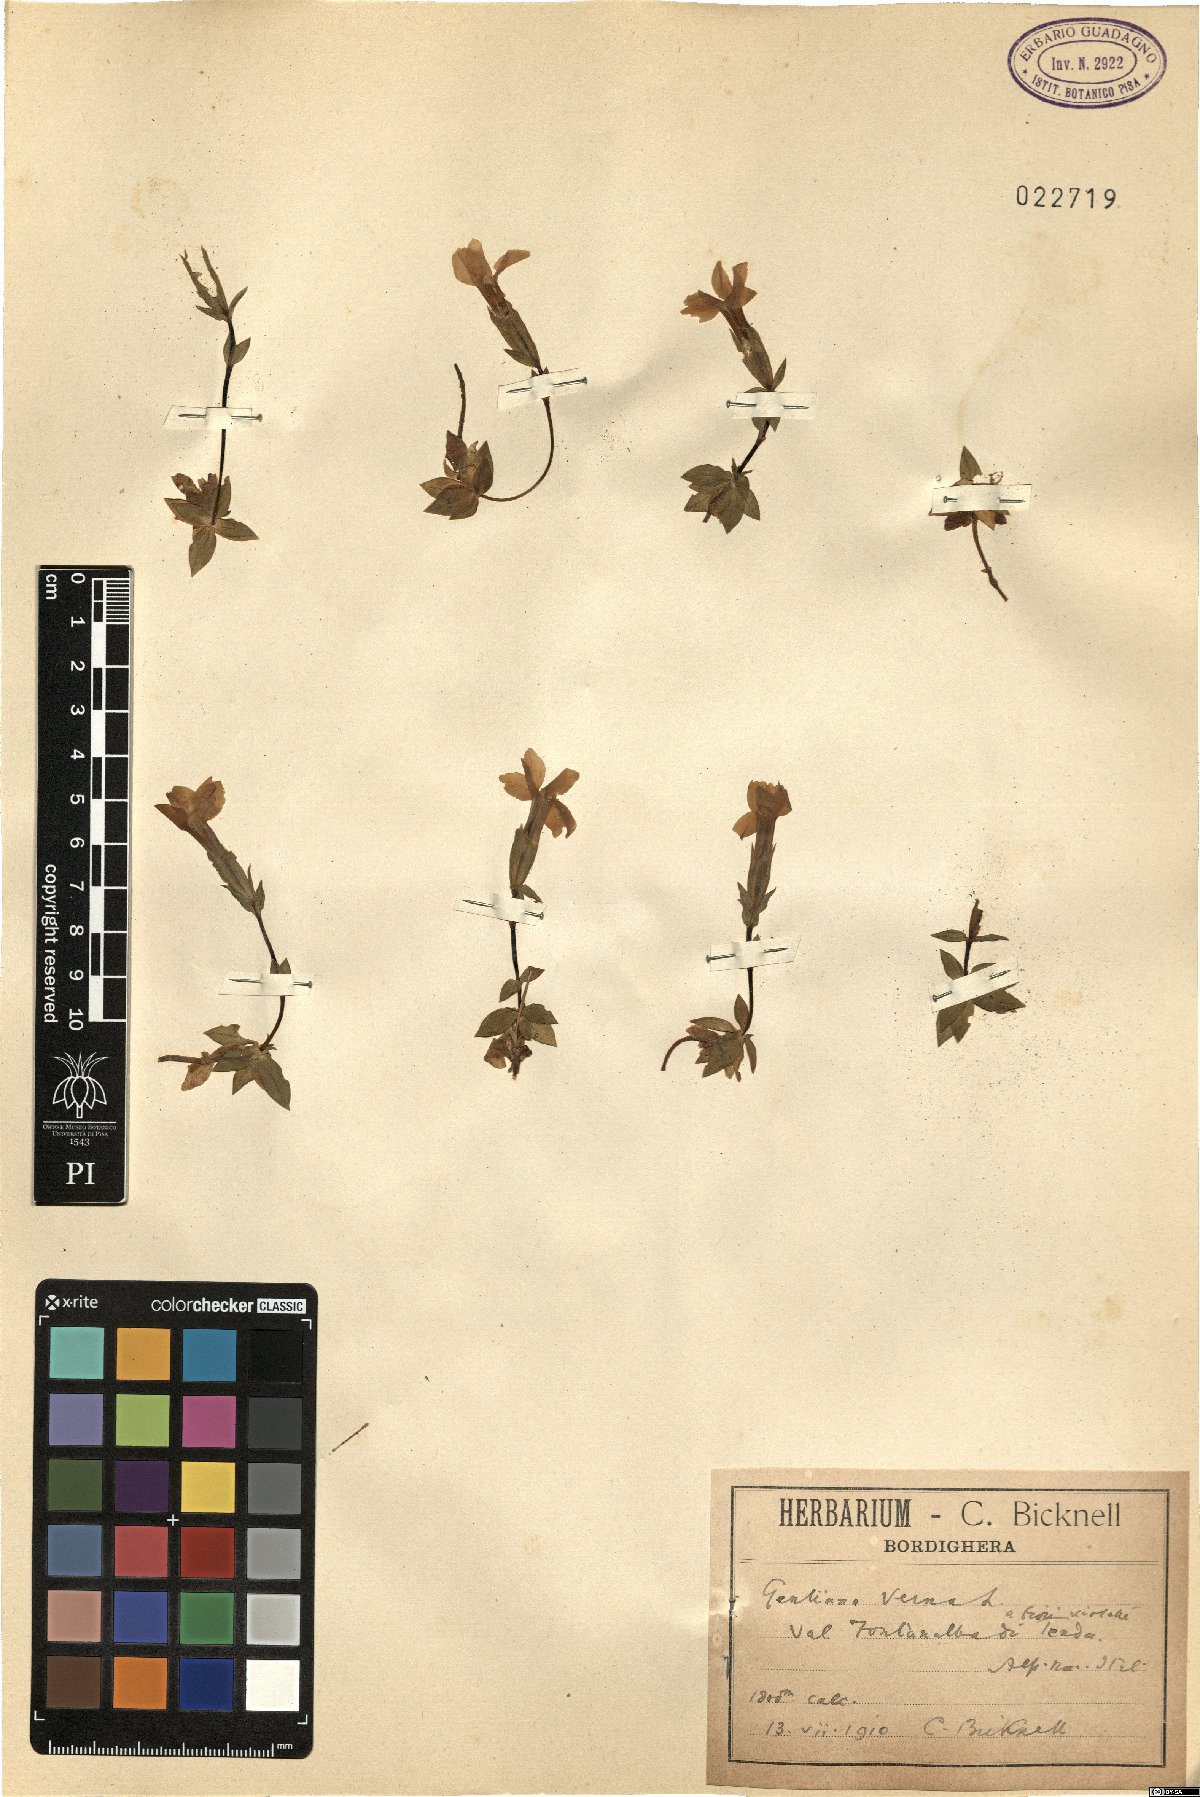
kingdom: Plantae
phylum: Tracheophyta
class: Magnoliopsida
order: Gentianales
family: Gentianaceae
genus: Gentiana
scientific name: Gentiana verna
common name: Spring gentian
